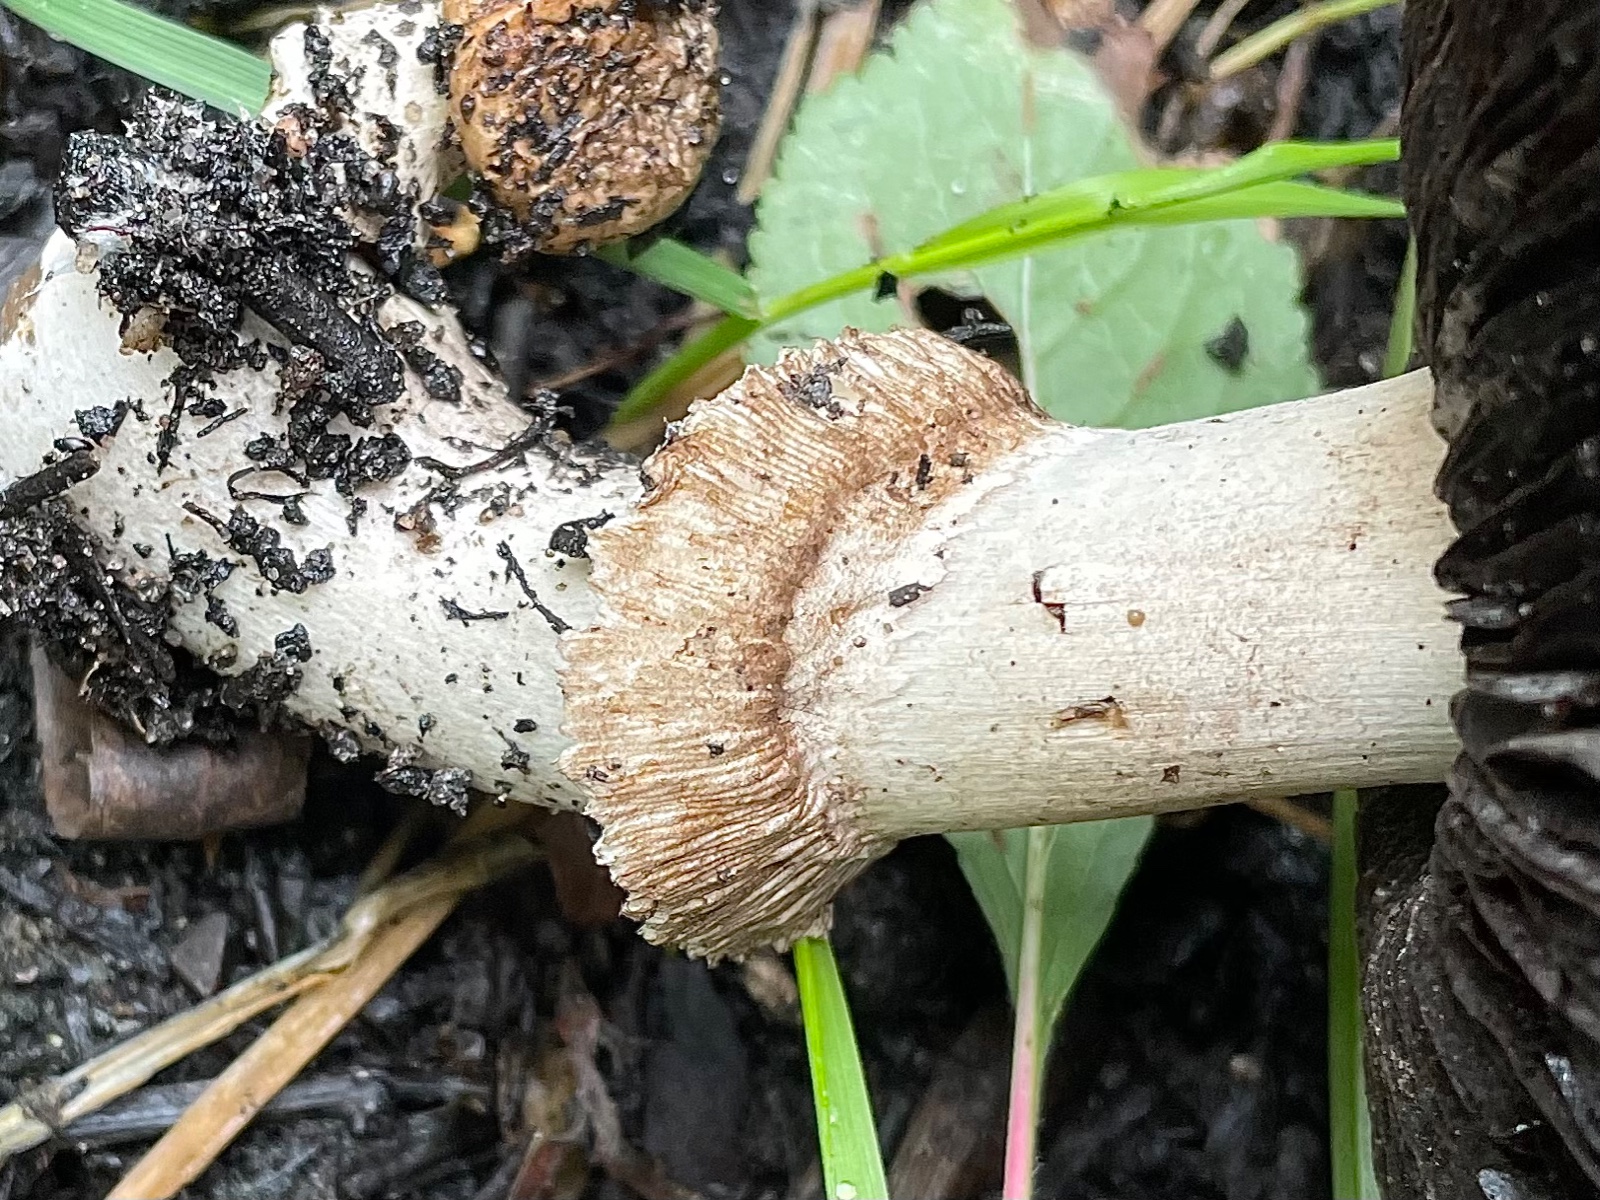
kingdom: Fungi
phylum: Basidiomycota
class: Agaricomycetes
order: Agaricales
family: Agaricaceae
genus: Agaricus
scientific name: Agaricus
